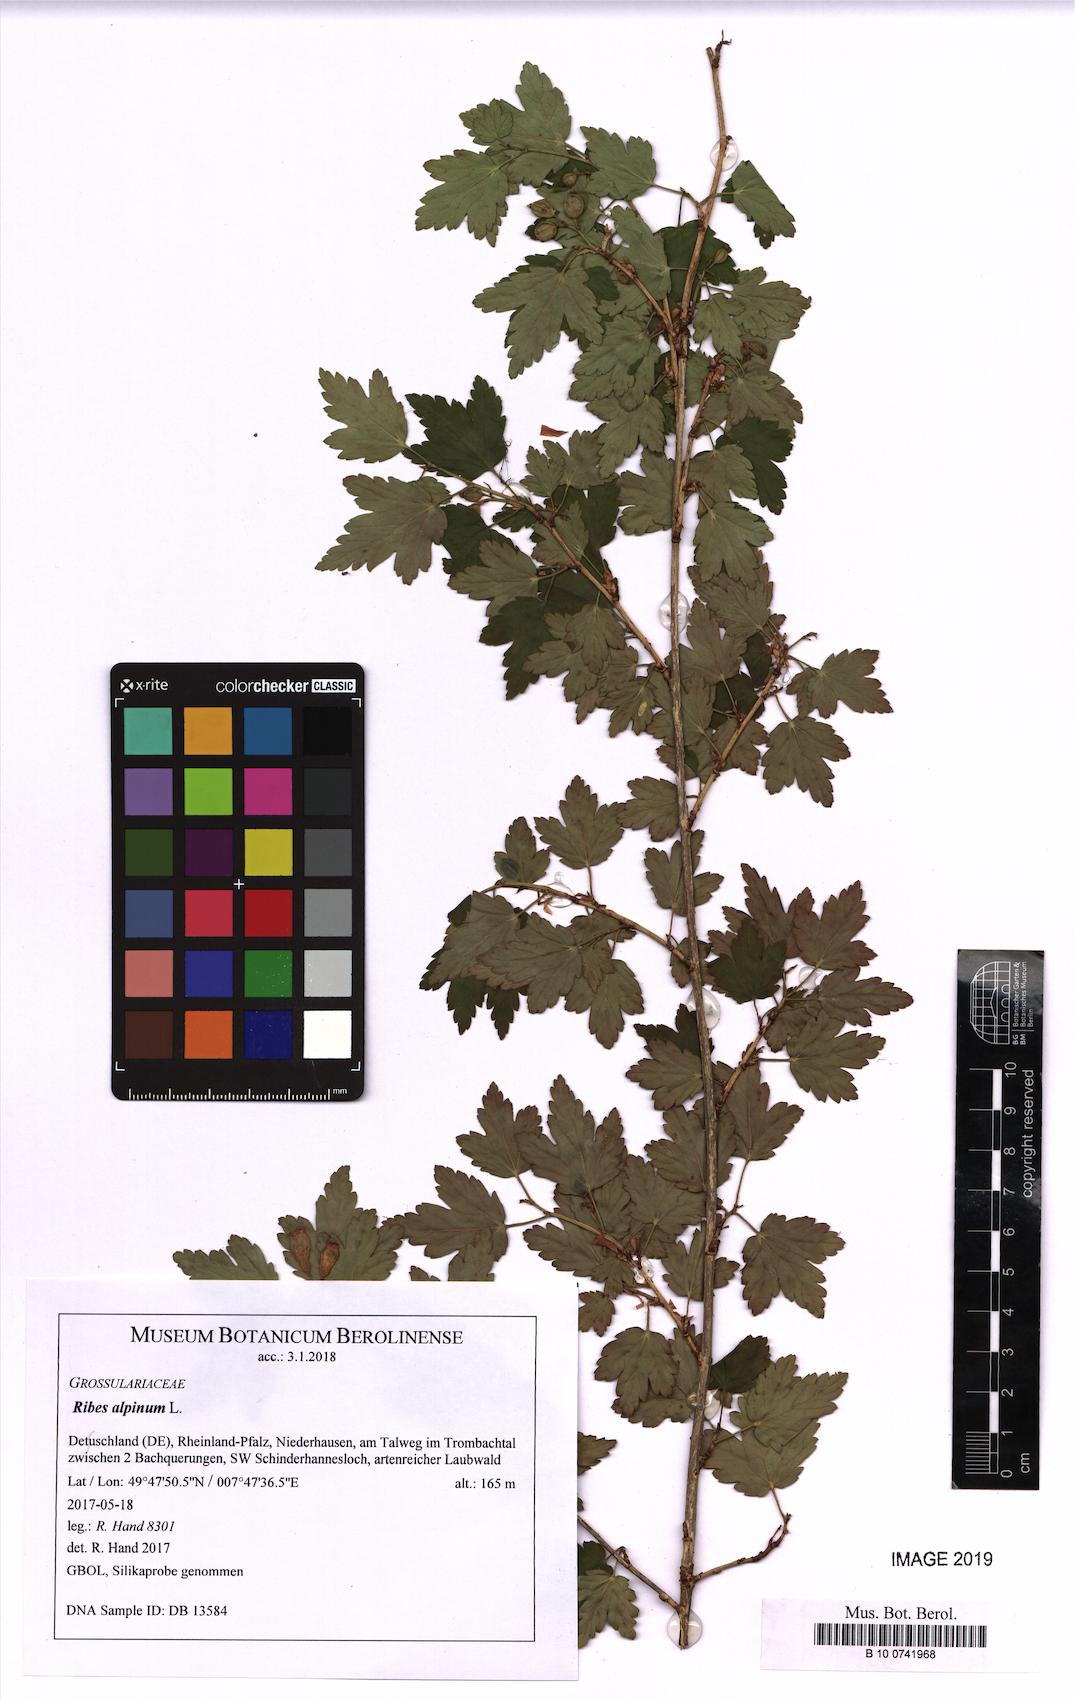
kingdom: Plantae
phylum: Tracheophyta
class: Magnoliopsida
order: Saxifragales
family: Grossulariaceae
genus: Ribes
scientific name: Ribes alpinum
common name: Alpine currant
